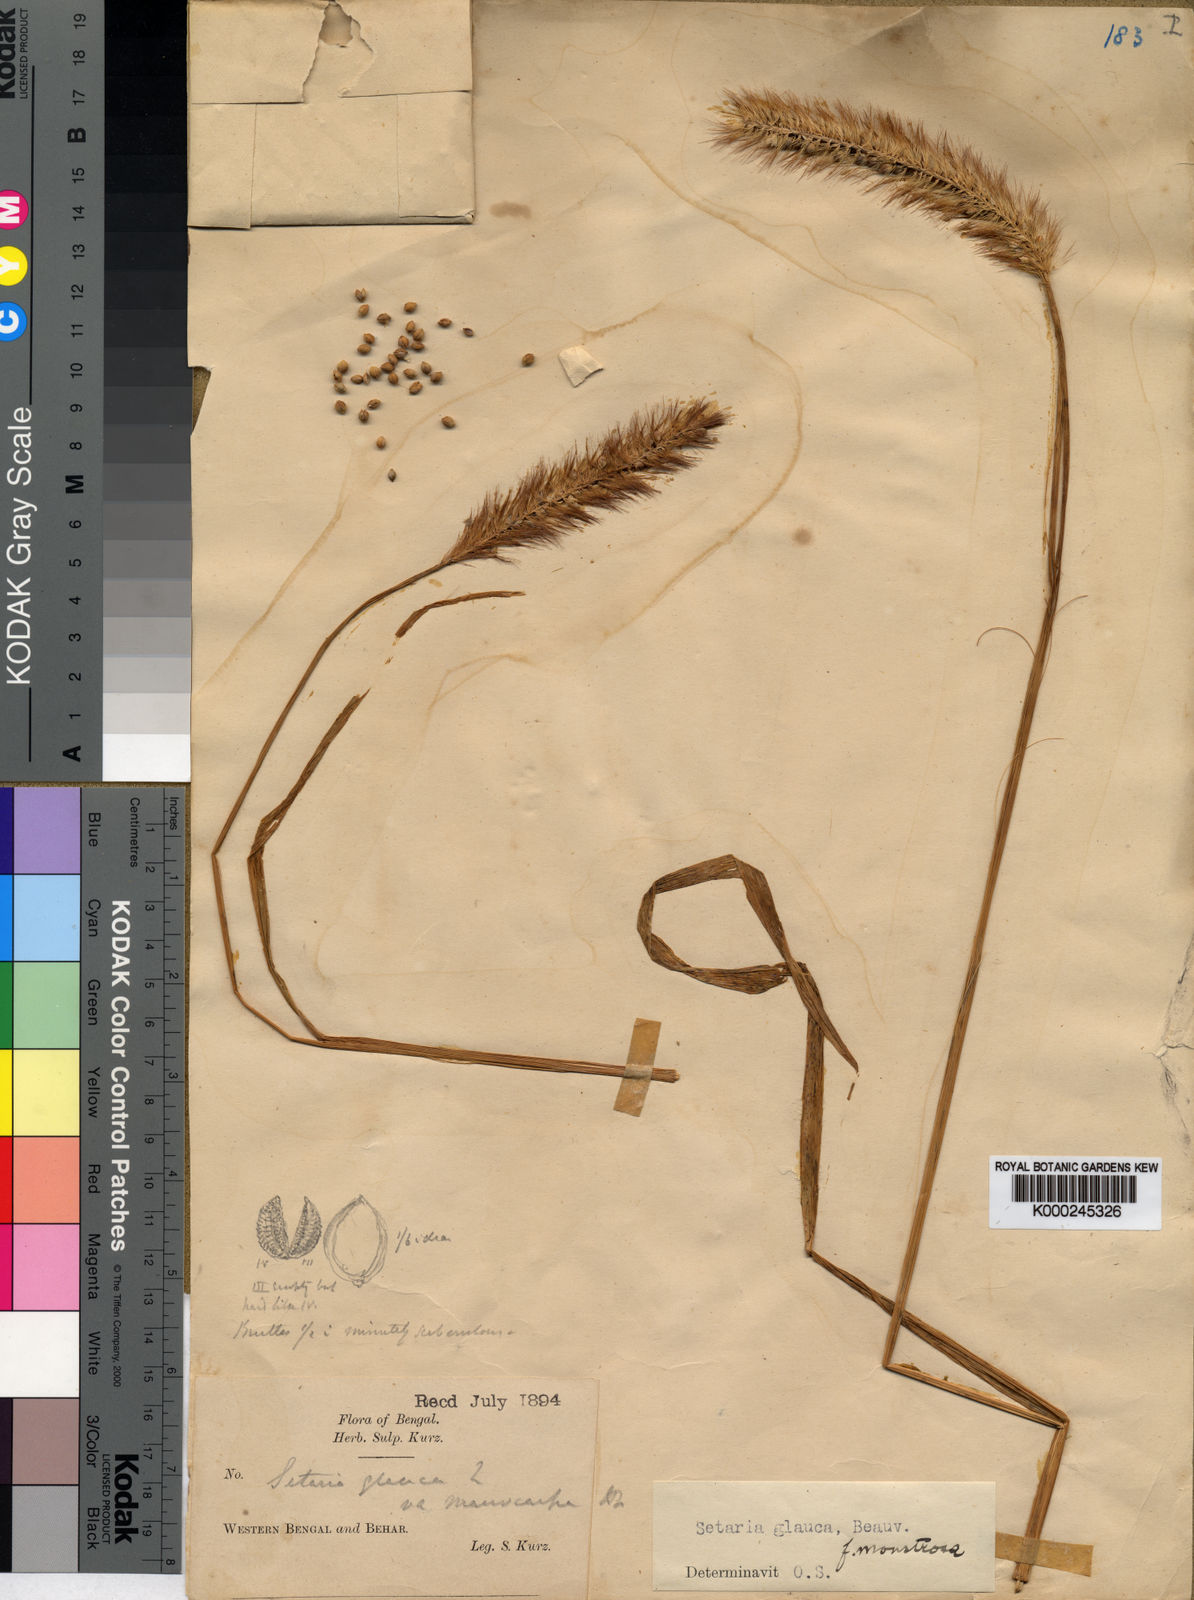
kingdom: Plantae
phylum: Tracheophyta
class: Liliopsida
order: Poales
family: Poaceae
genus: Setaria
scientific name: Setaria pumila
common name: Yellow bristle-grass
